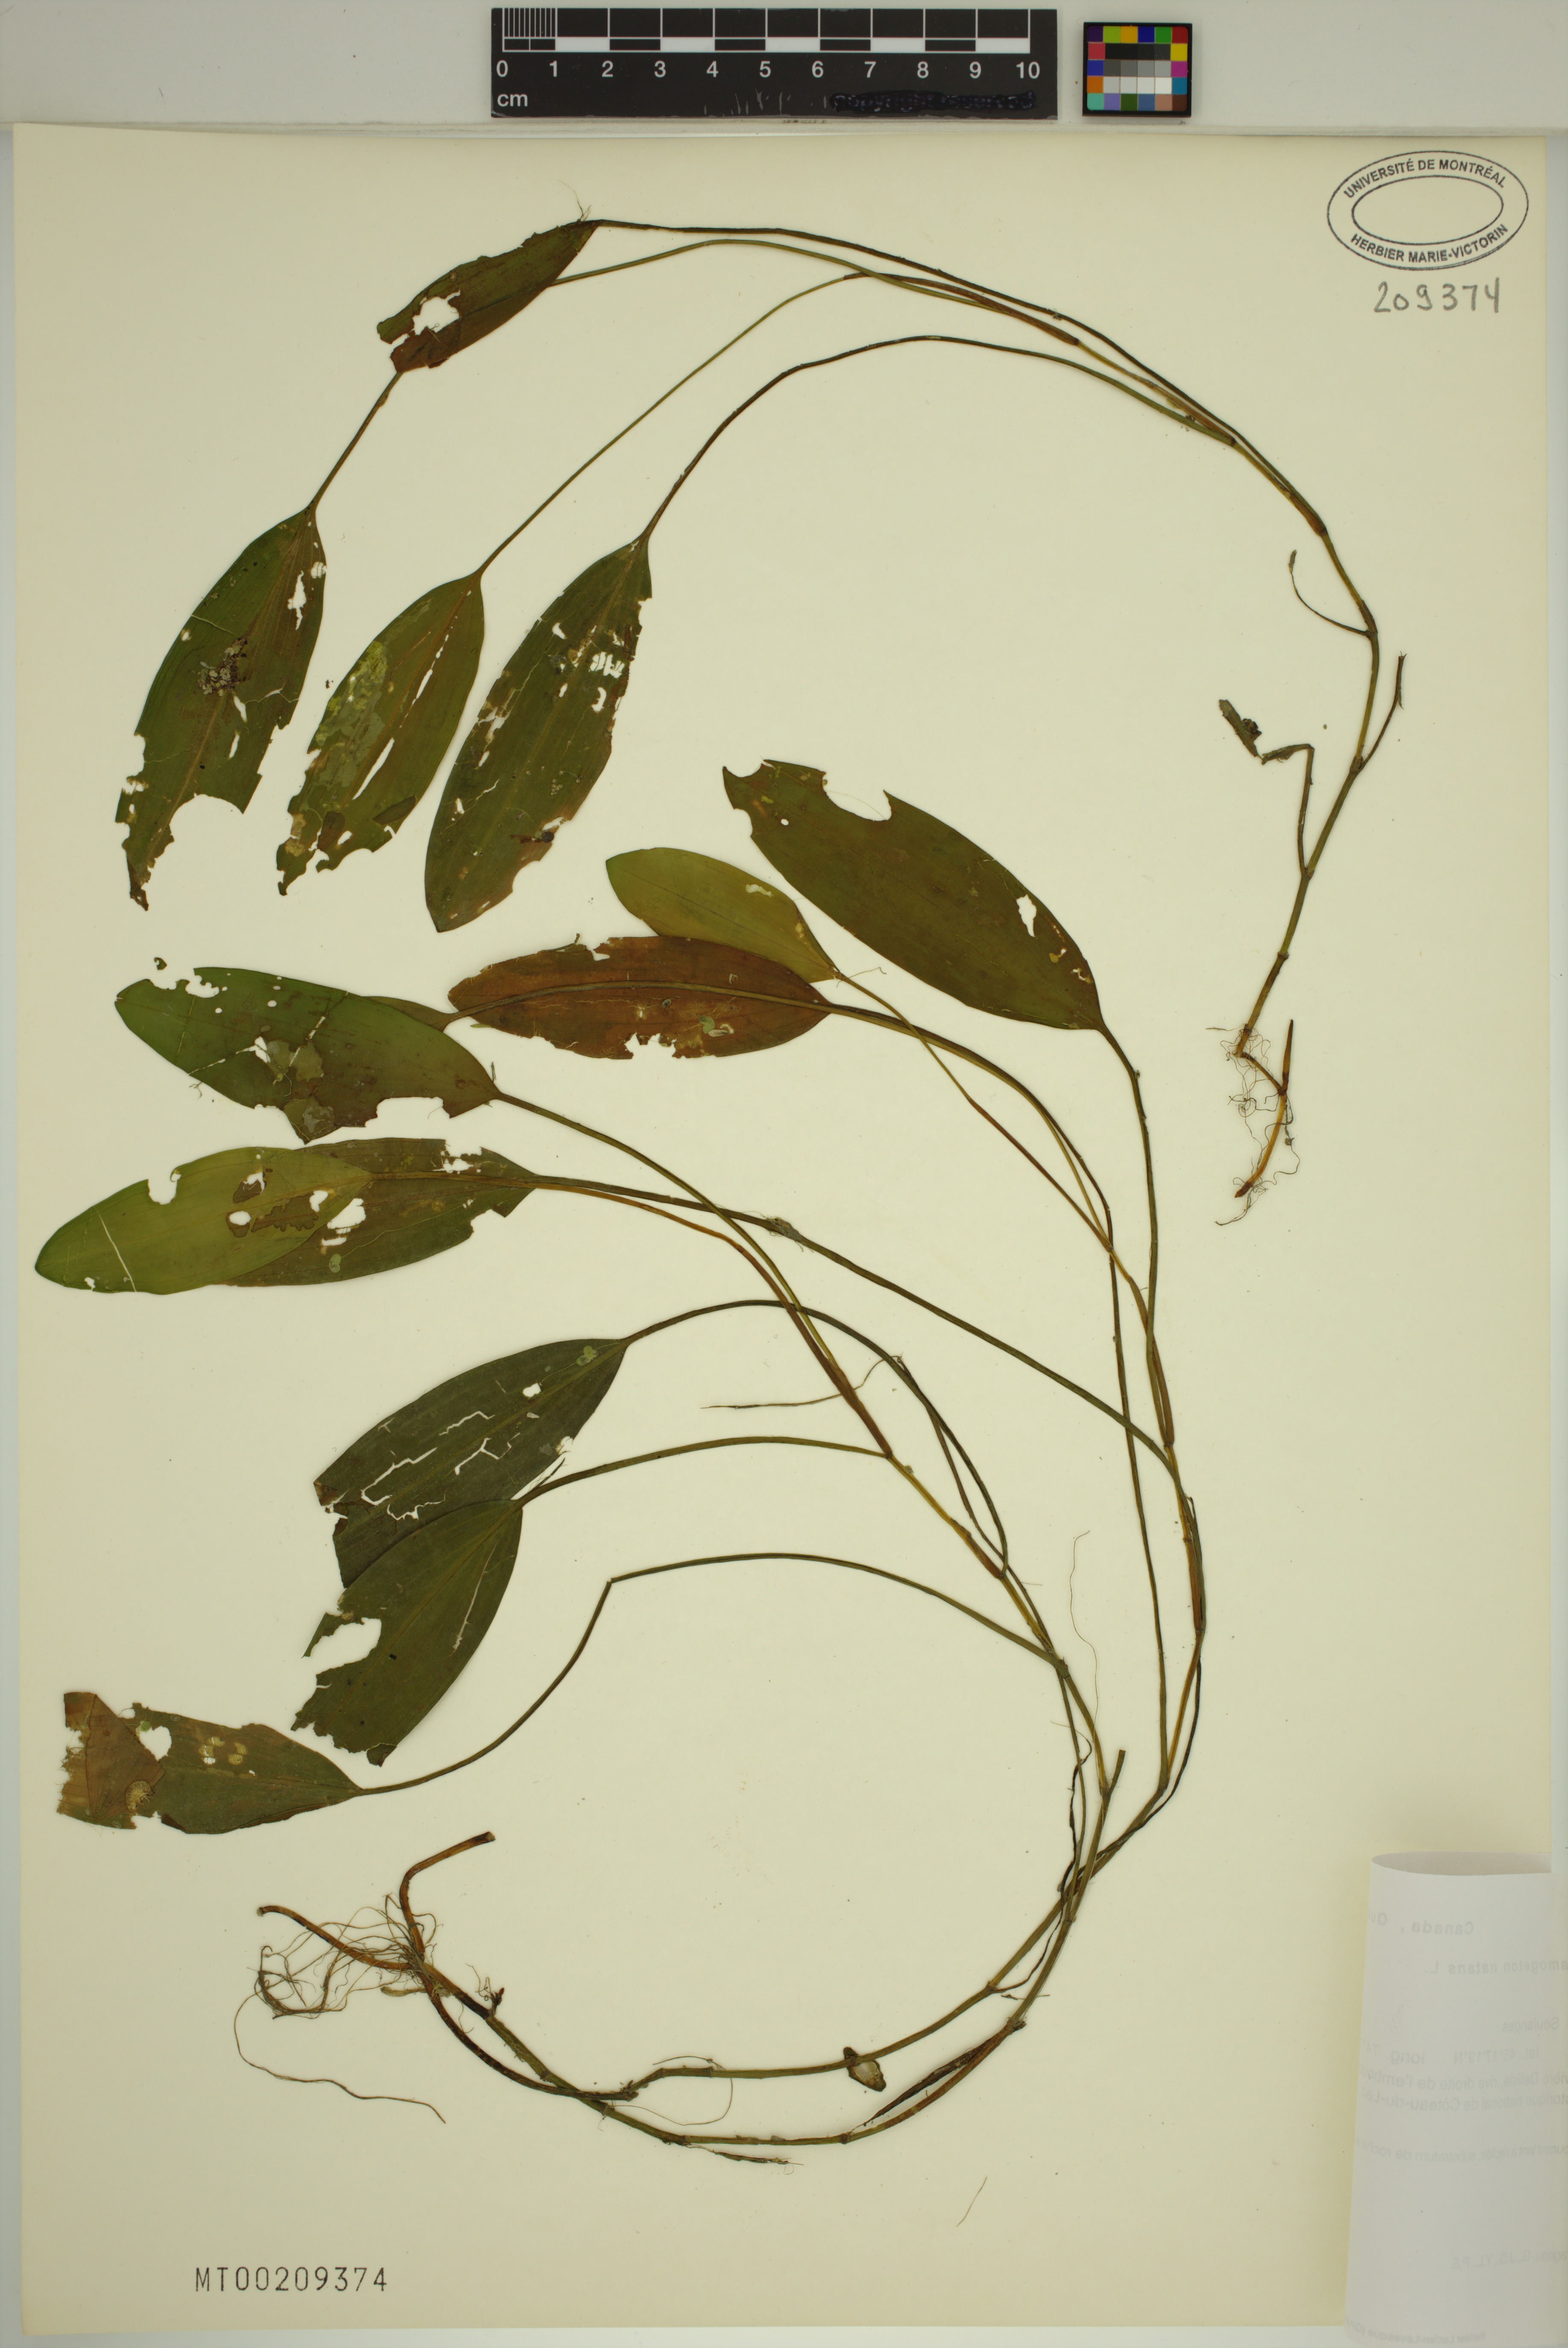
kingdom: Plantae
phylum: Tracheophyta
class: Liliopsida
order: Alismatales
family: Potamogetonaceae
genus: Potamogeton
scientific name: Potamogeton natans
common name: Broad-leaved pondweed
